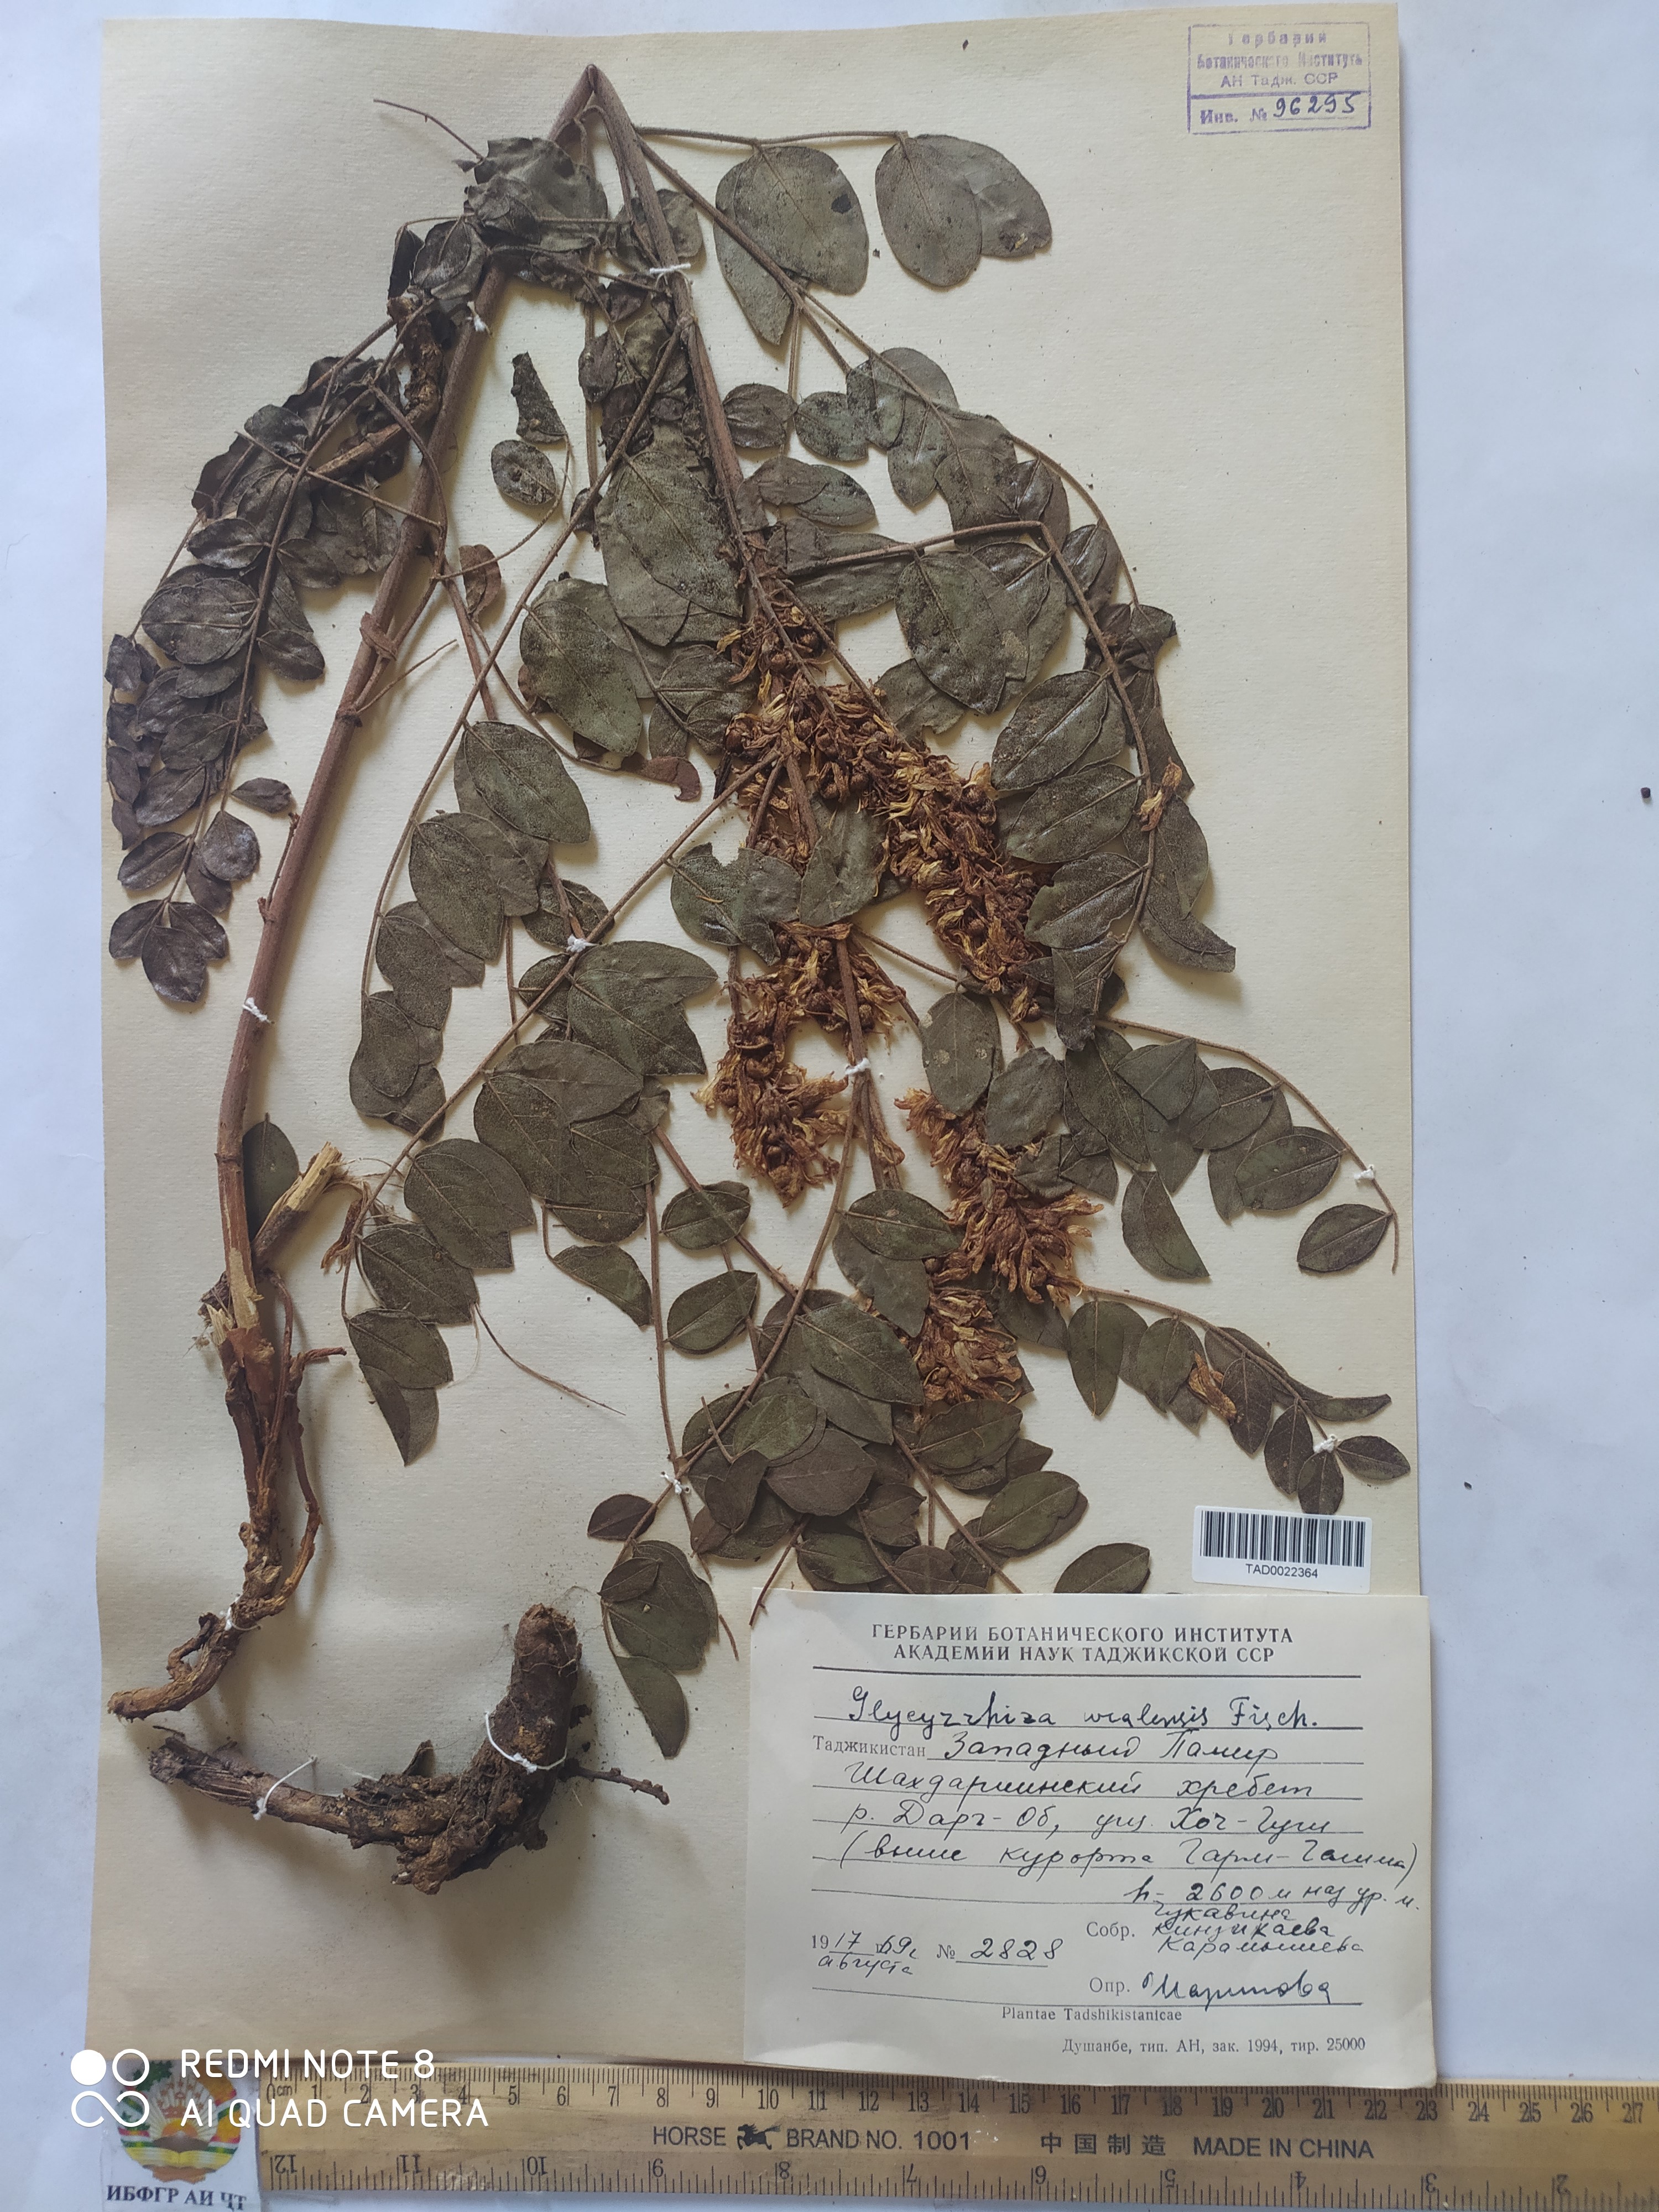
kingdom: Plantae
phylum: Tracheophyta
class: Magnoliopsida
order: Fabales
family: Fabaceae
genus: Glycyrrhiza
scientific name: Glycyrrhiza uralensis
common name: Chinese licorice
